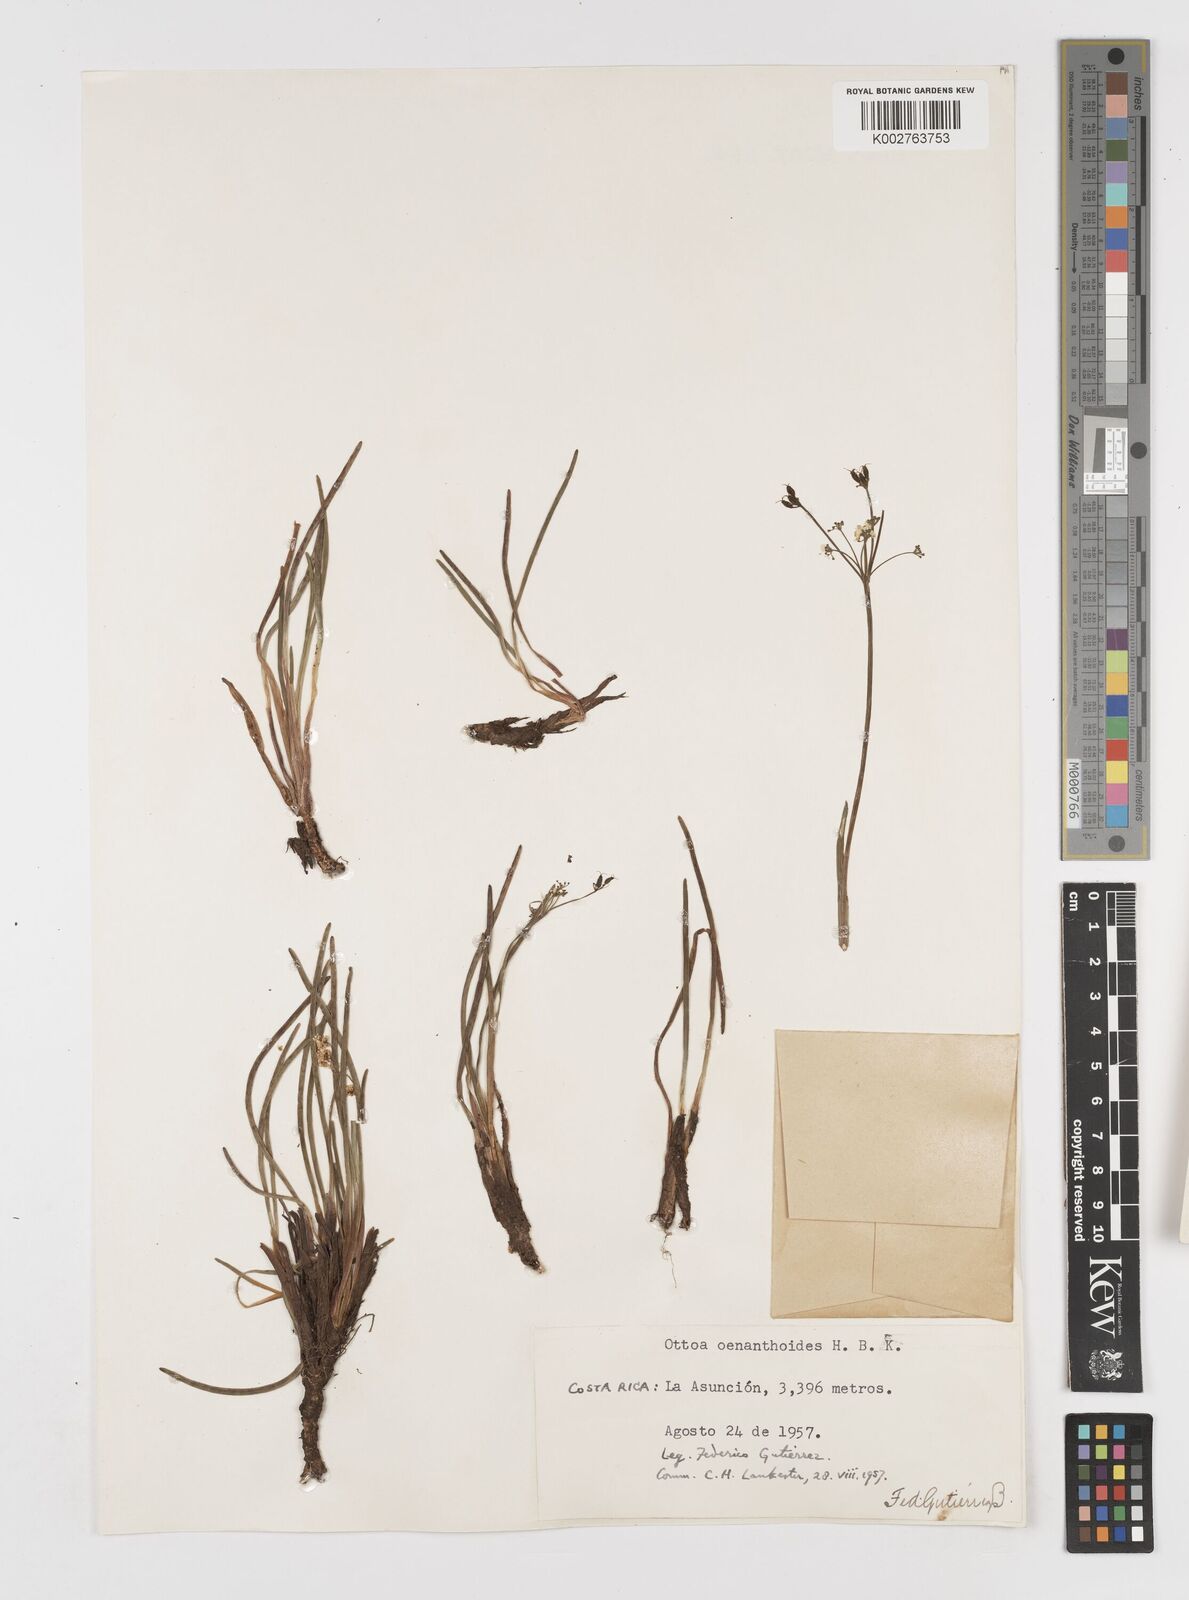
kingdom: Plantae
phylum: Tracheophyta
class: Magnoliopsida
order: Apiales
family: Apiaceae
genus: Ottoa
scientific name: Ottoa oenanthoides
